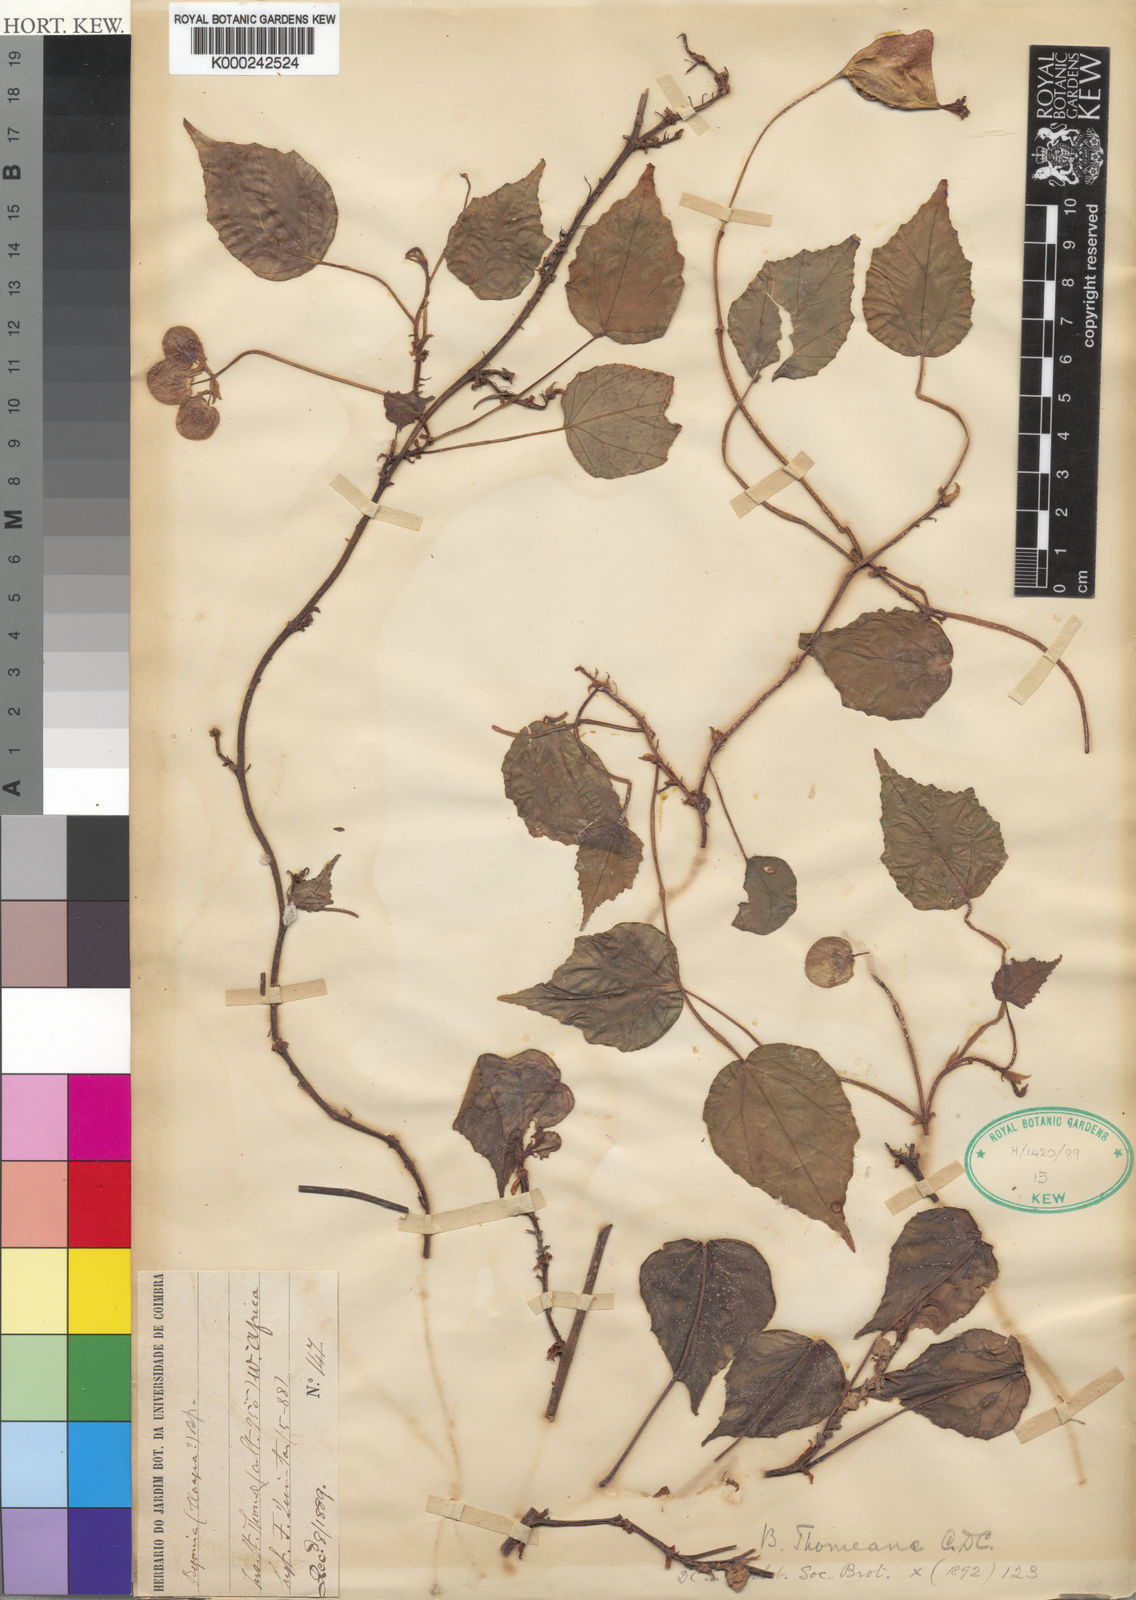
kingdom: Plantae
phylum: Tracheophyta
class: Magnoliopsida
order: Cucurbitales
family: Begoniaceae
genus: Begonia
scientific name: Begonia thomeana
